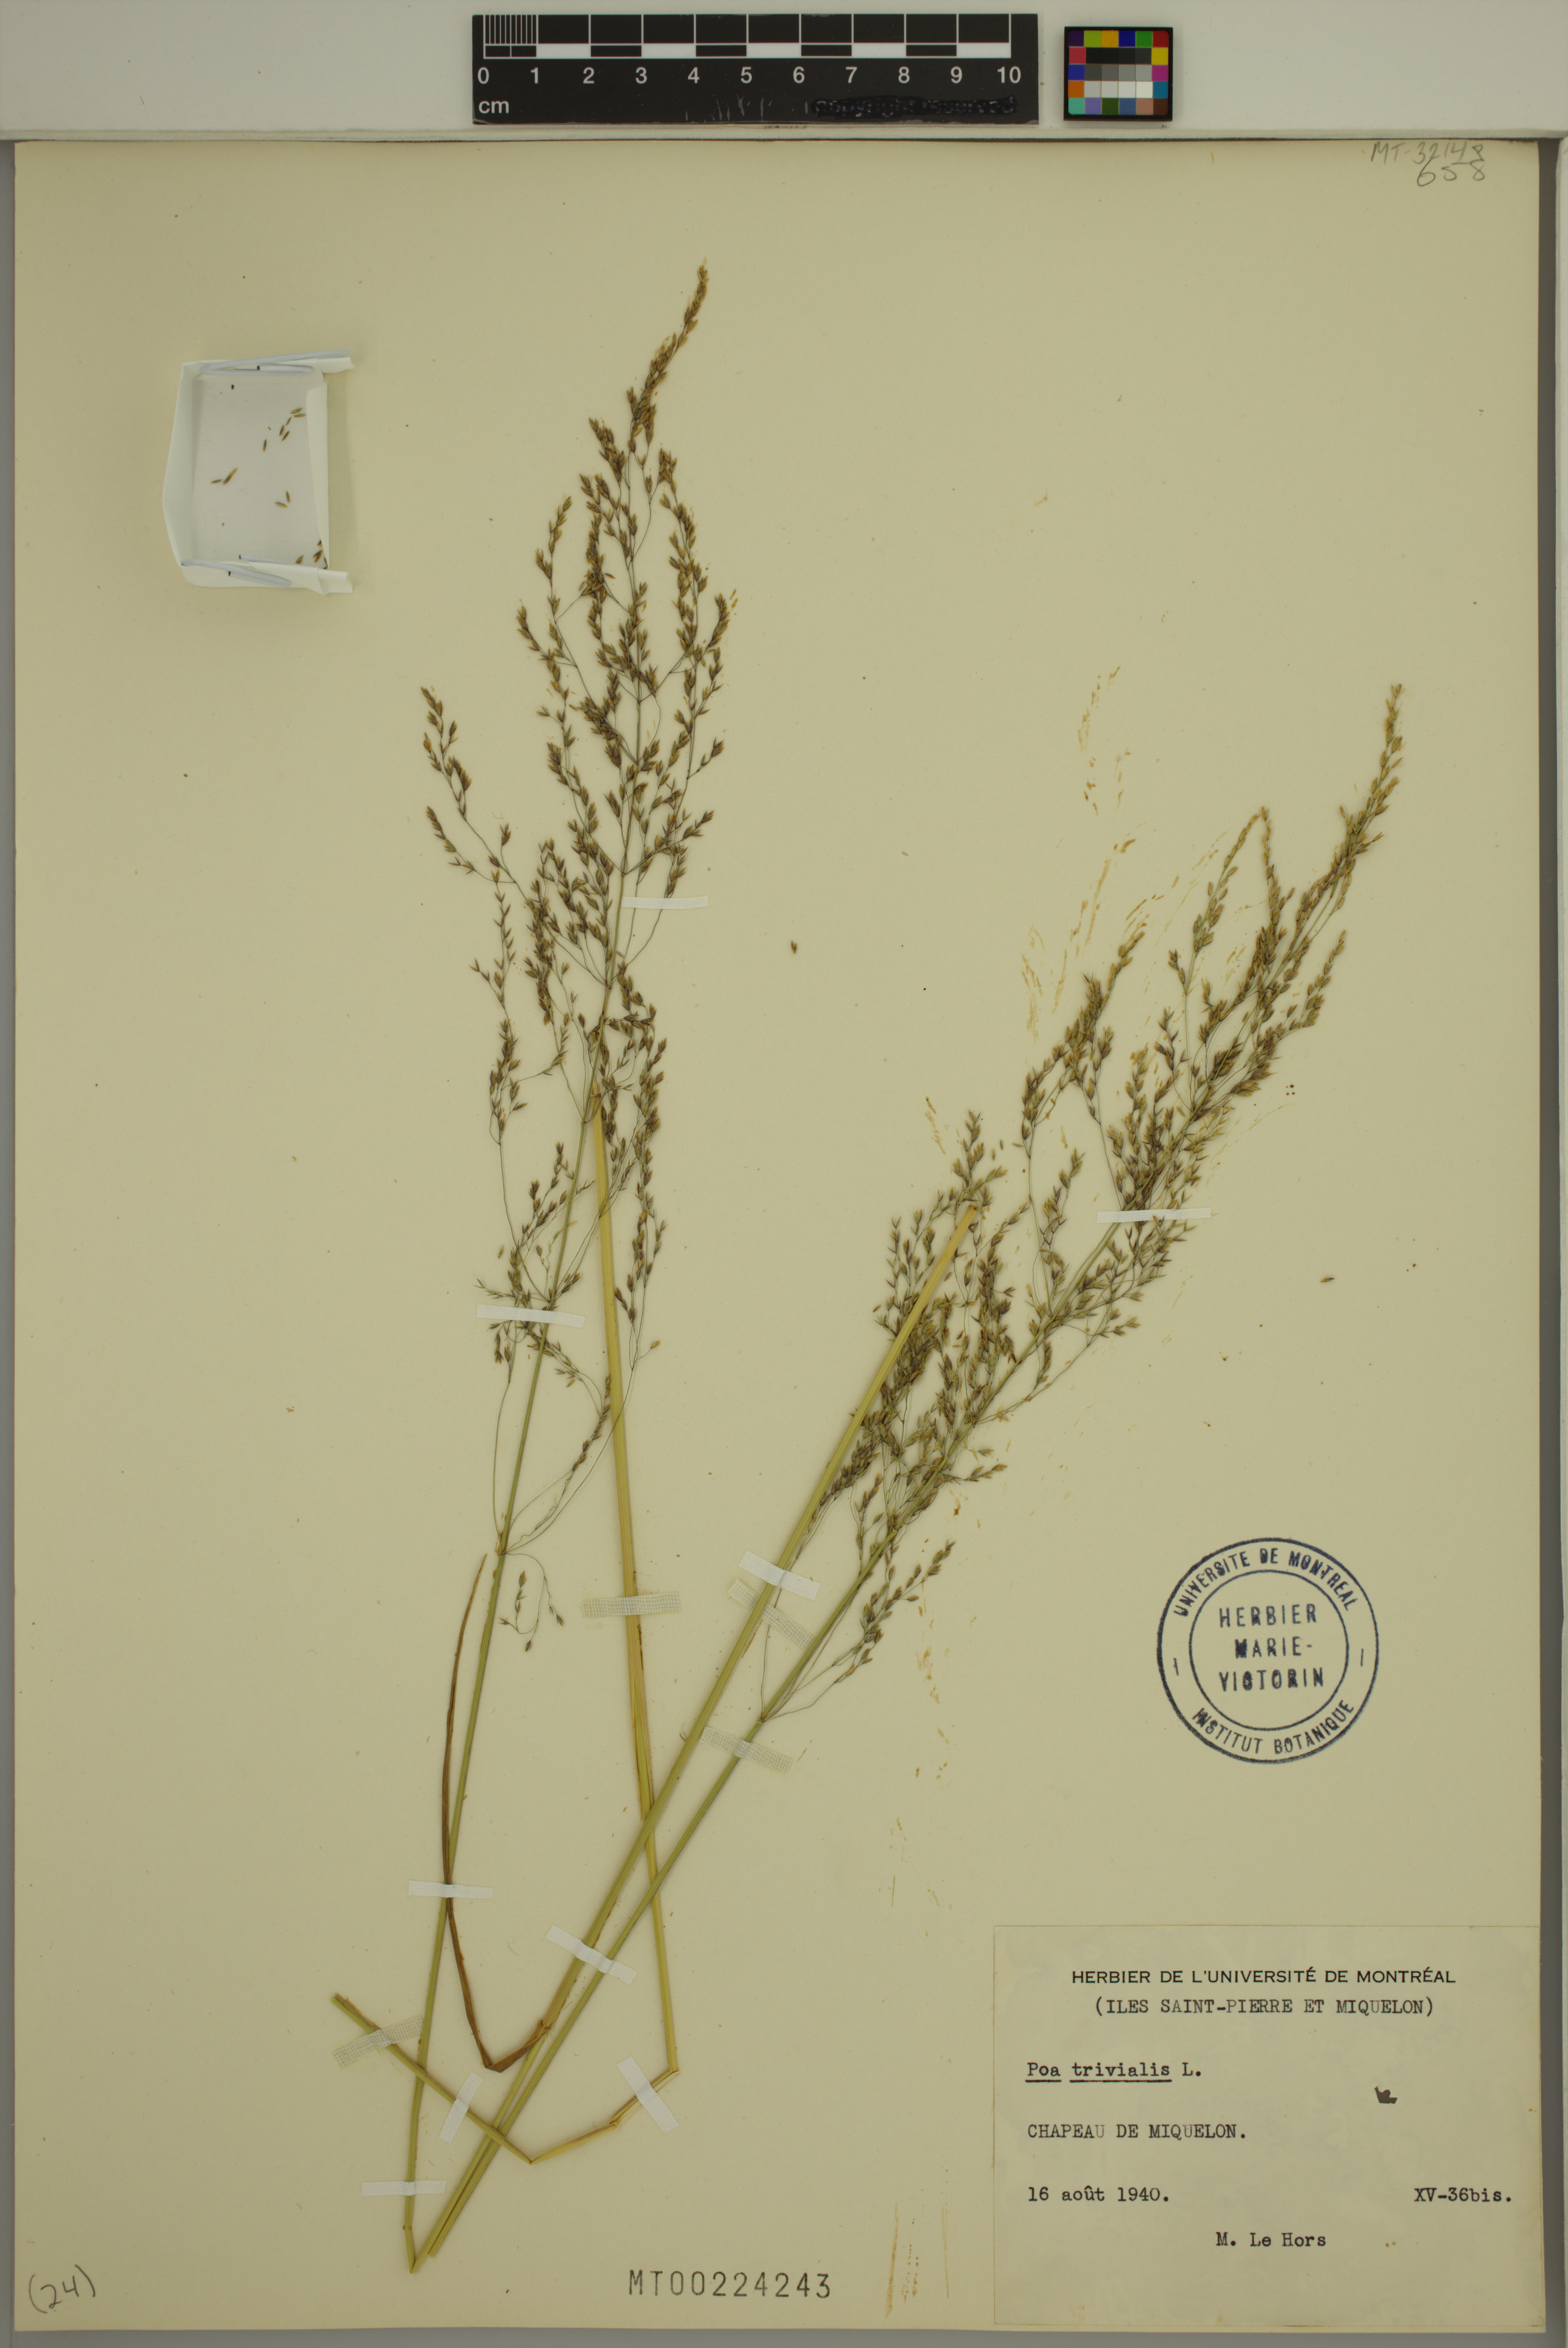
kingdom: Plantae
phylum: Tracheophyta
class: Liliopsida
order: Poales
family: Poaceae
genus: Poa
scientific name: Poa trivialis
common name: Rough bluegrass
